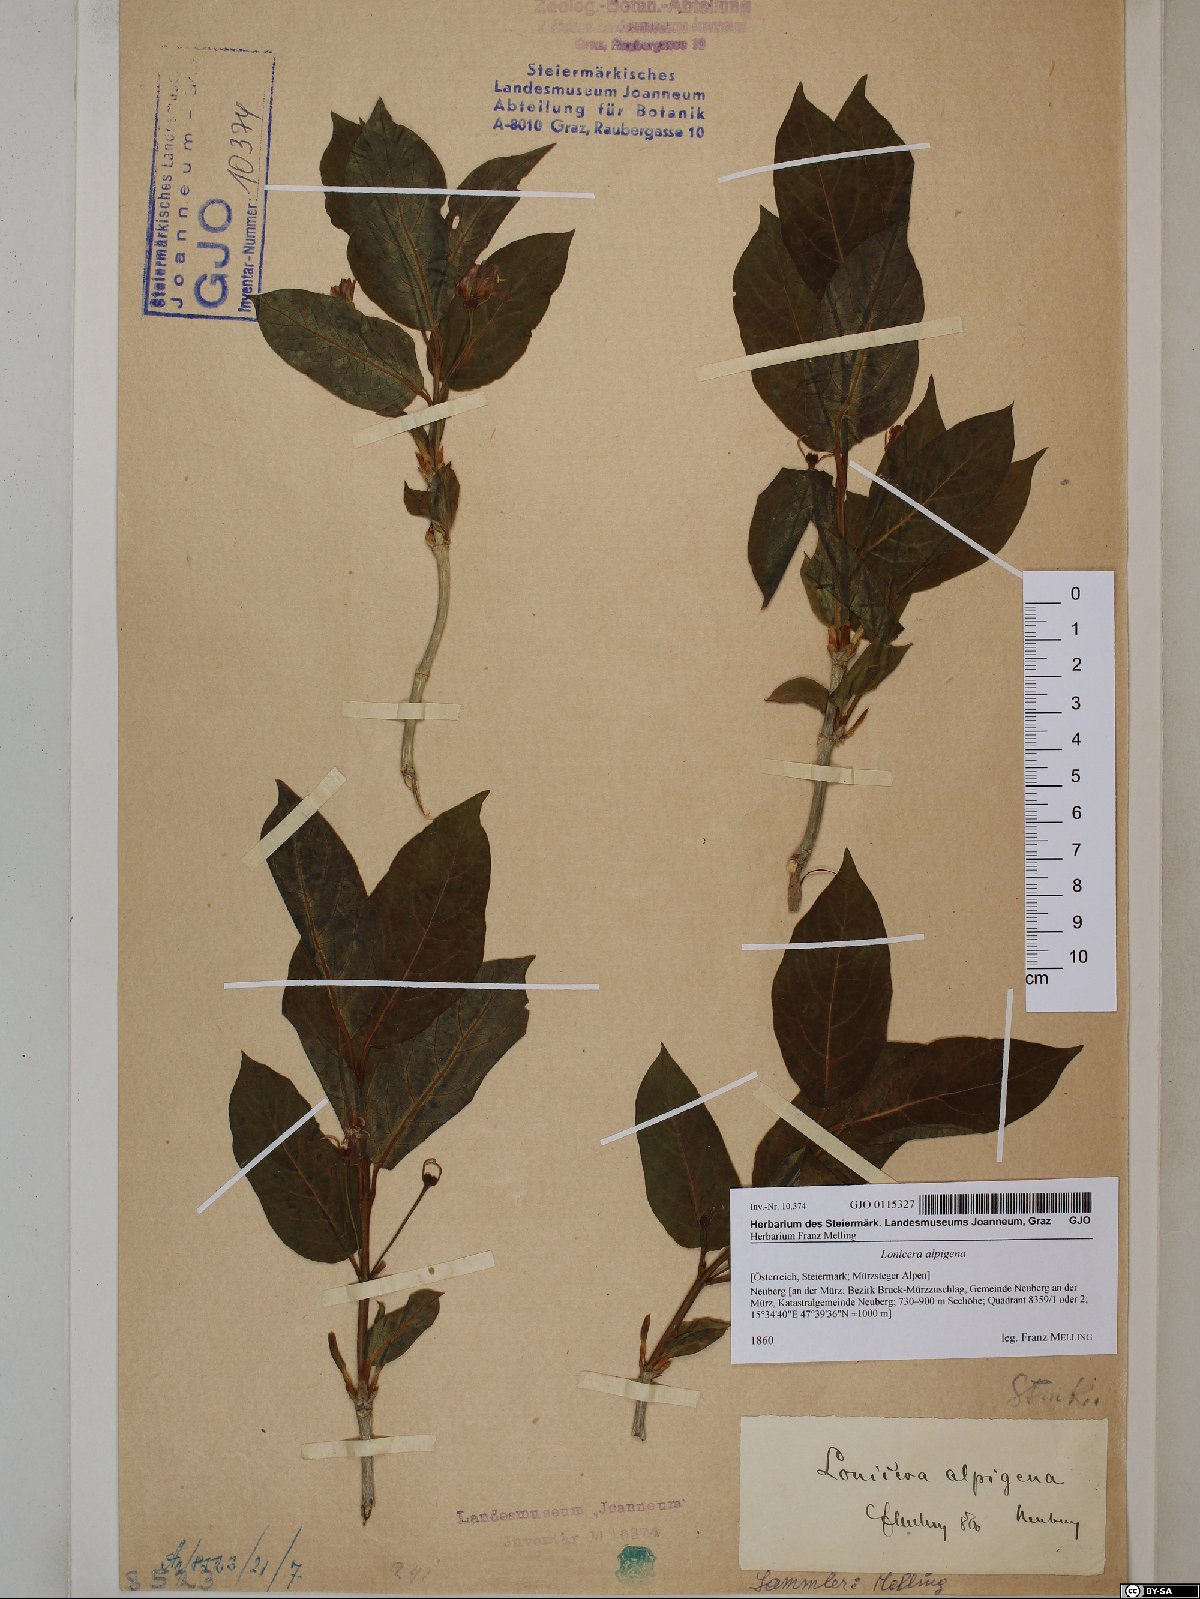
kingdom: Plantae
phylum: Tracheophyta
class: Magnoliopsida
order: Dipsacales
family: Caprifoliaceae
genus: Lonicera
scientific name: Lonicera alpigena
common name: Alpine honeysuckle
